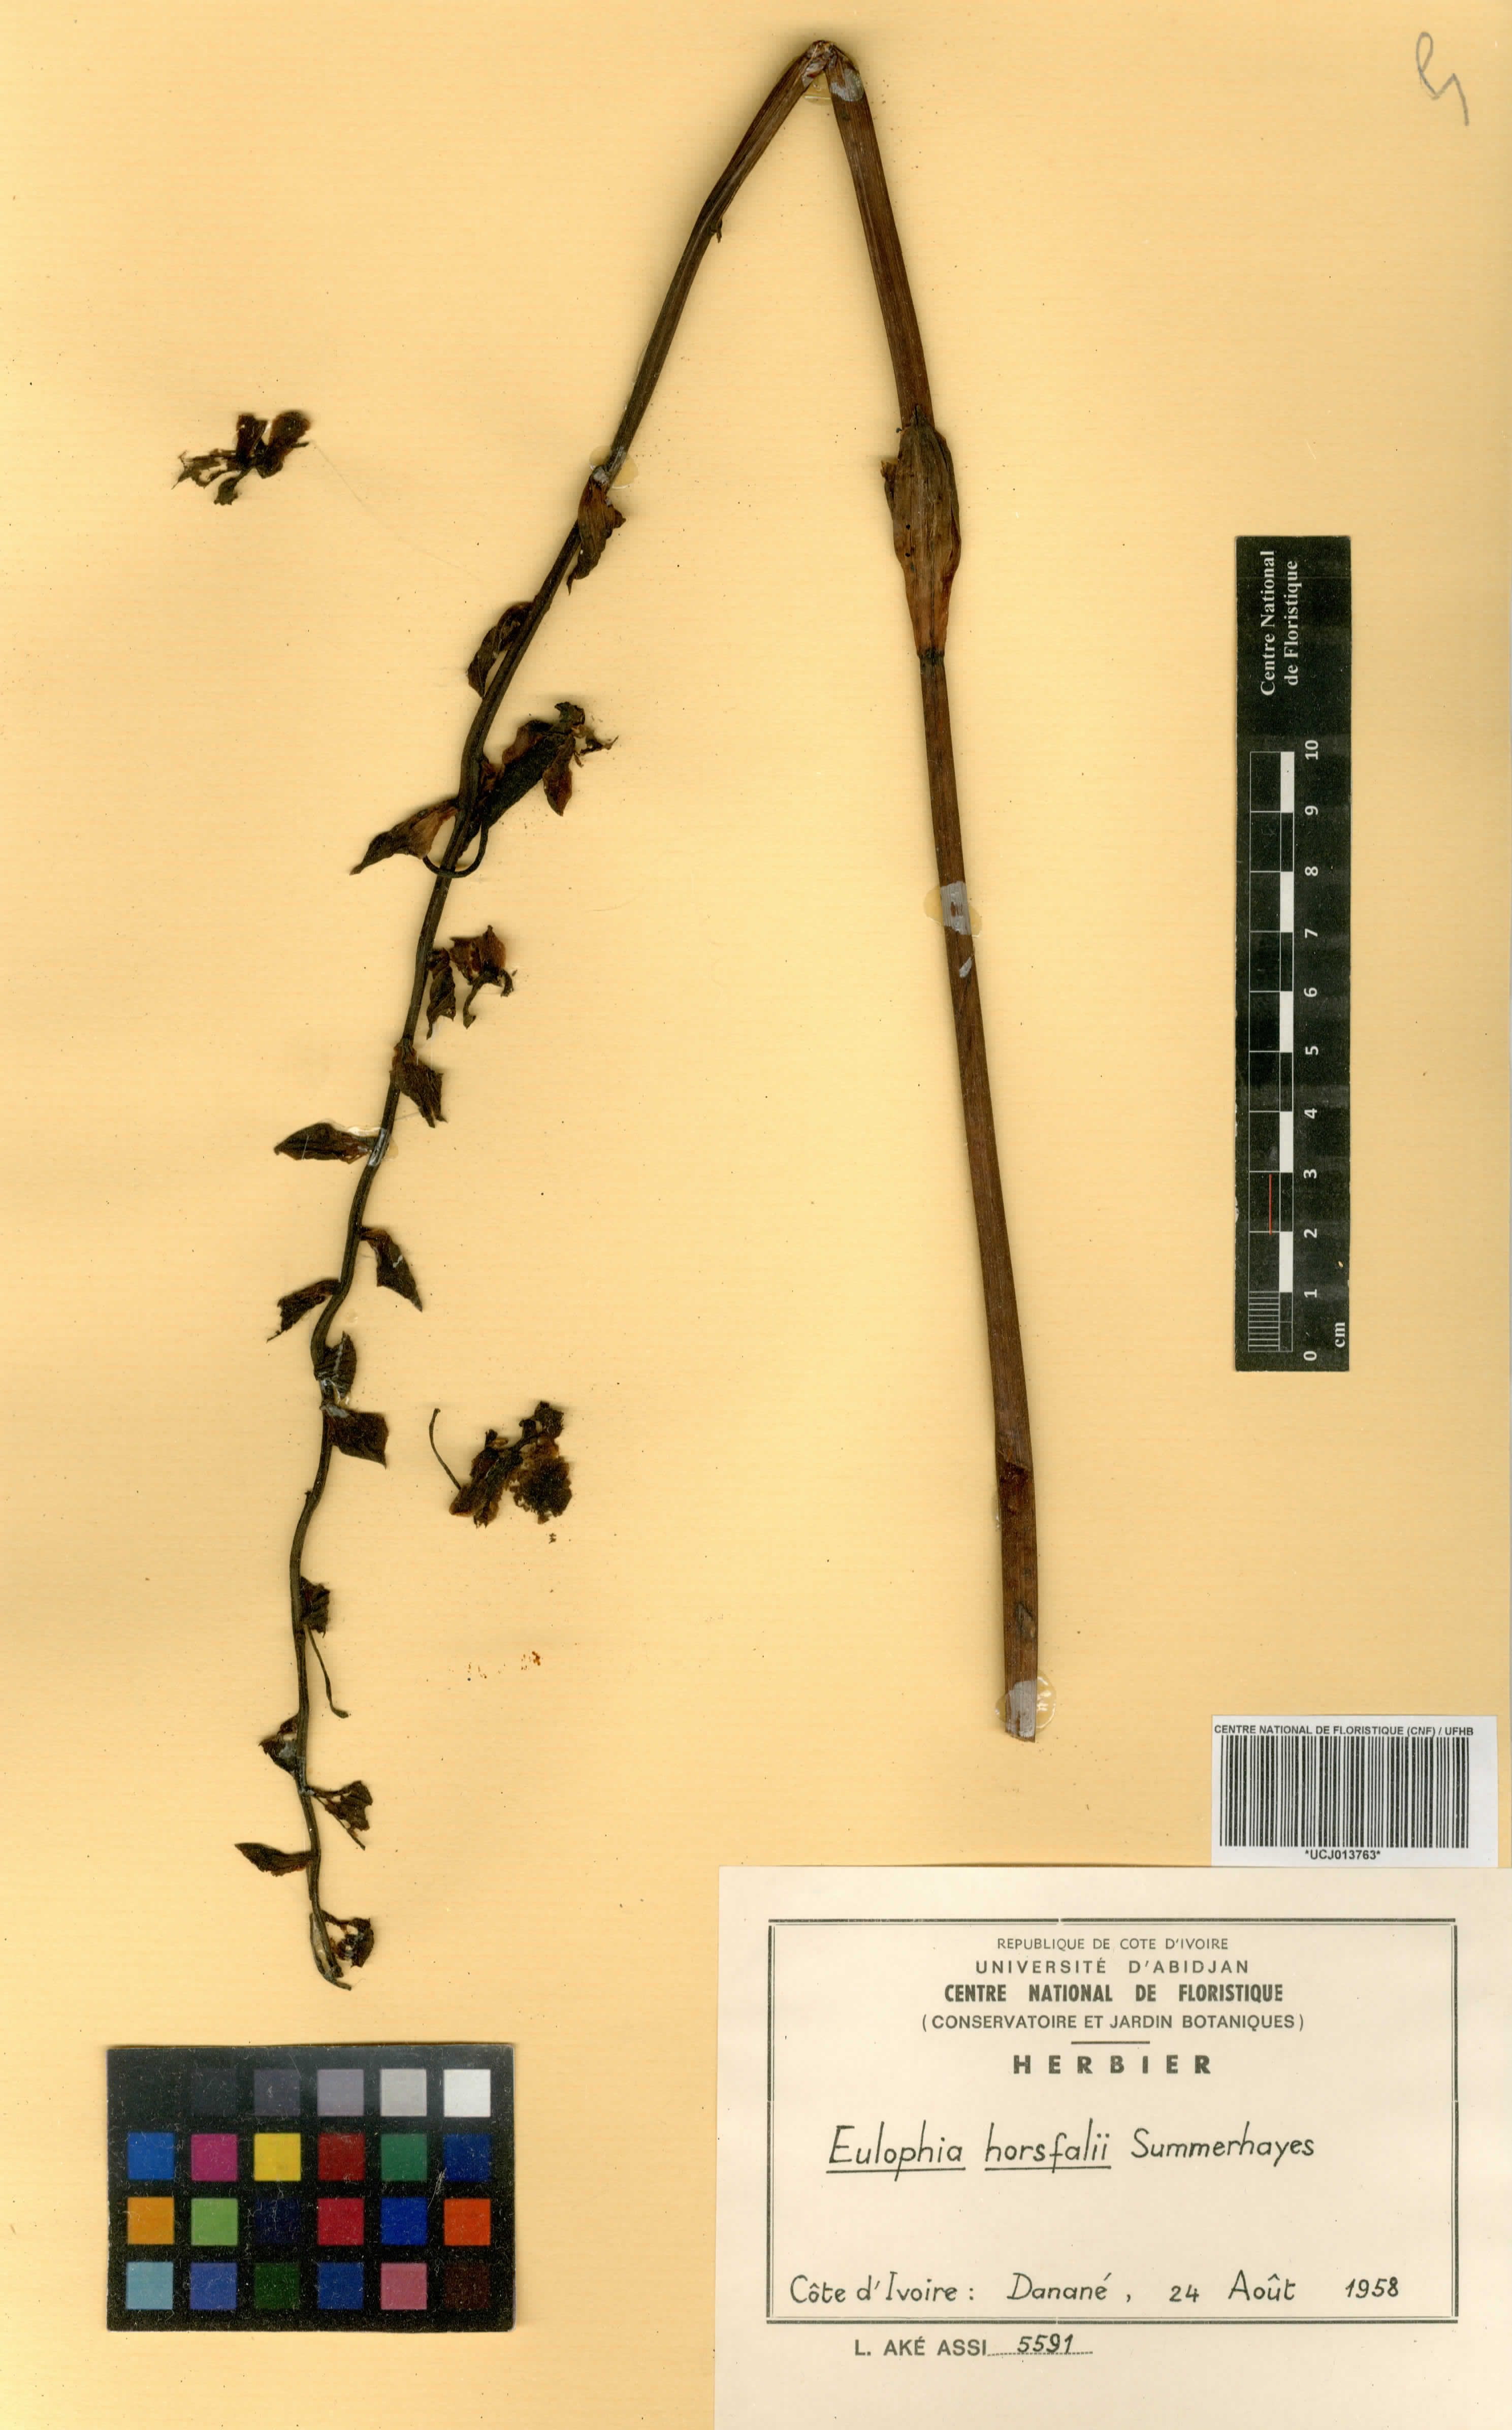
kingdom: Plantae
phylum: Tracheophyta
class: Liliopsida
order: Asparagales
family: Orchidaceae
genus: Eulophia
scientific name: Eulophia horsfallii
